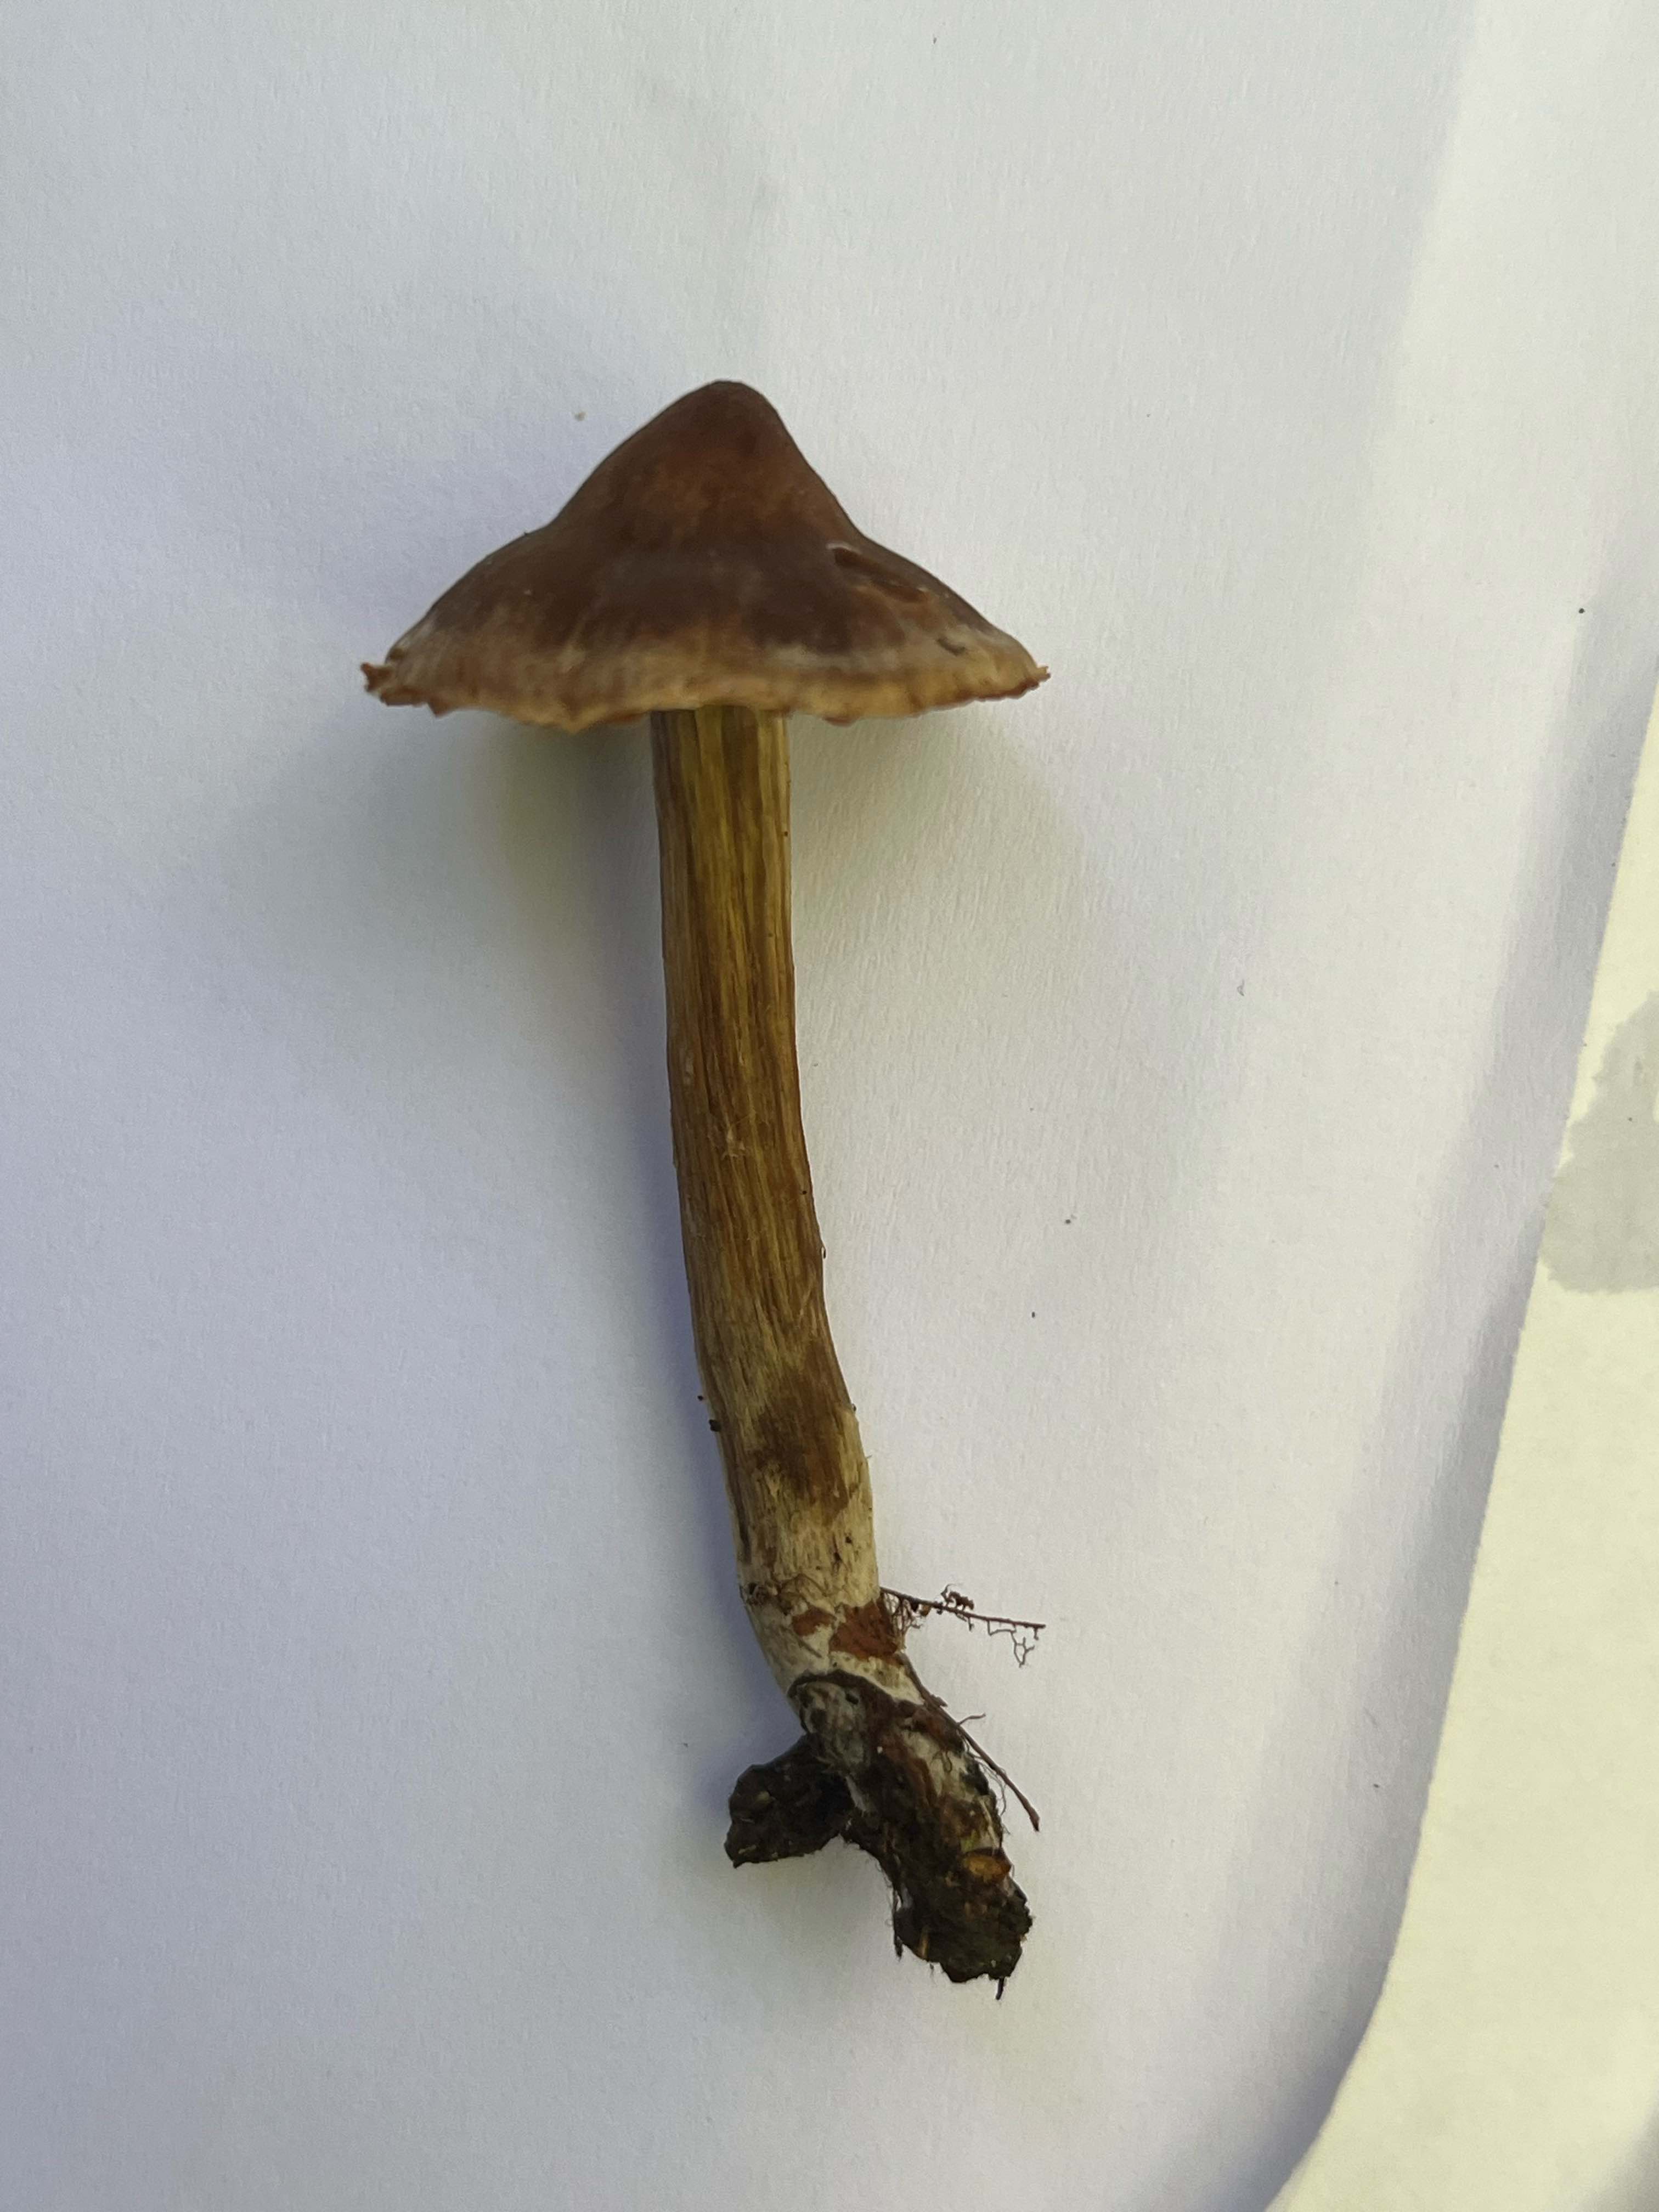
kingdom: Fungi
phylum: Basidiomycota
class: Agaricomycetes
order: Agaricales
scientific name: Agaricales
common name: champignonordenen
